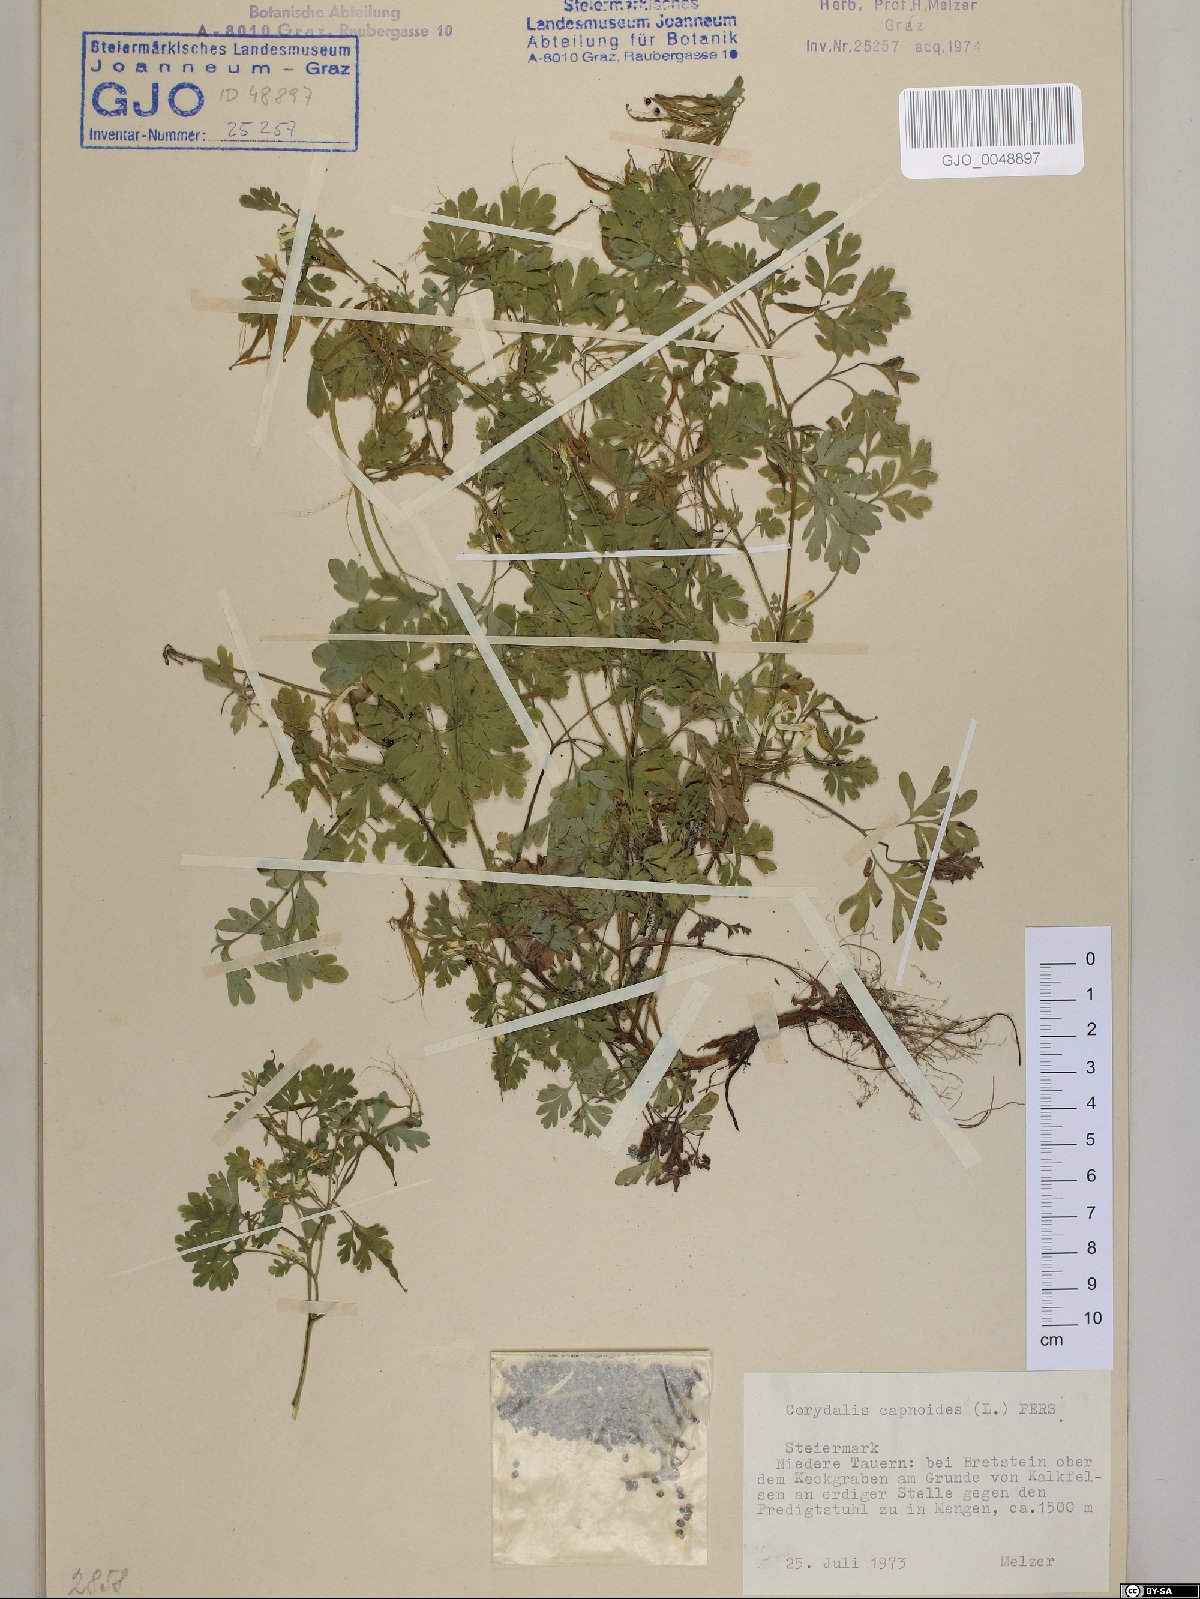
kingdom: Plantae
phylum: Tracheophyta
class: Magnoliopsida
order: Ranunculales
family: Papaveraceae
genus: Corydalis
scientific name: Corydalis capnoides
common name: Beaked corydalis
